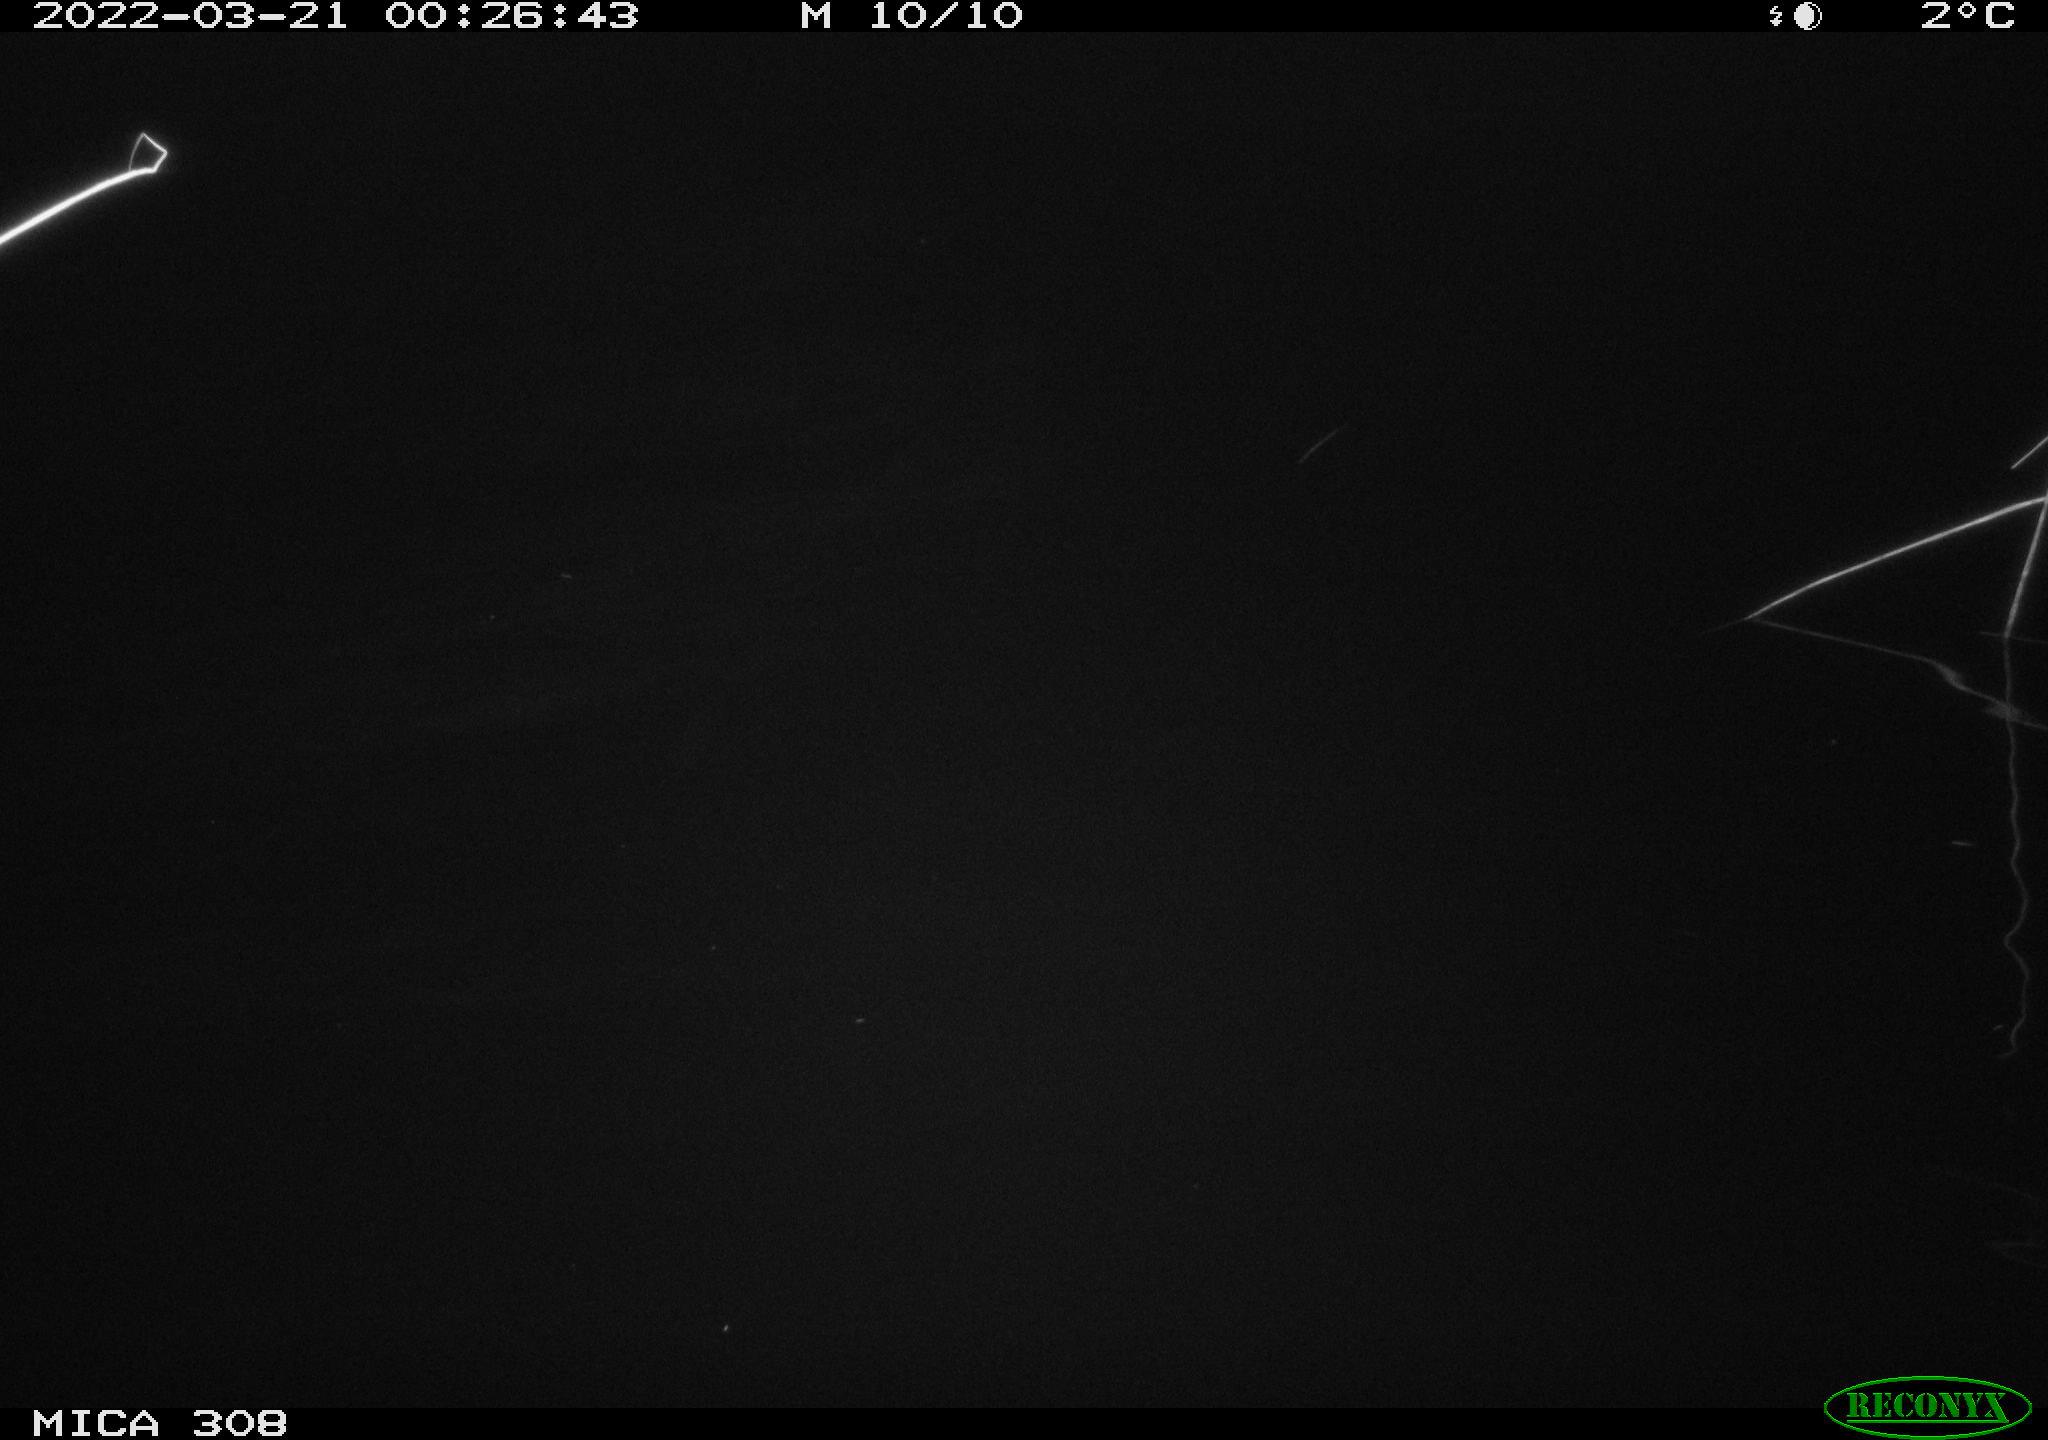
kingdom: Animalia
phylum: Chordata
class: Aves
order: Anseriformes
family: Anatidae
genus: Anas
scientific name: Anas platyrhynchos
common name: Mallard
